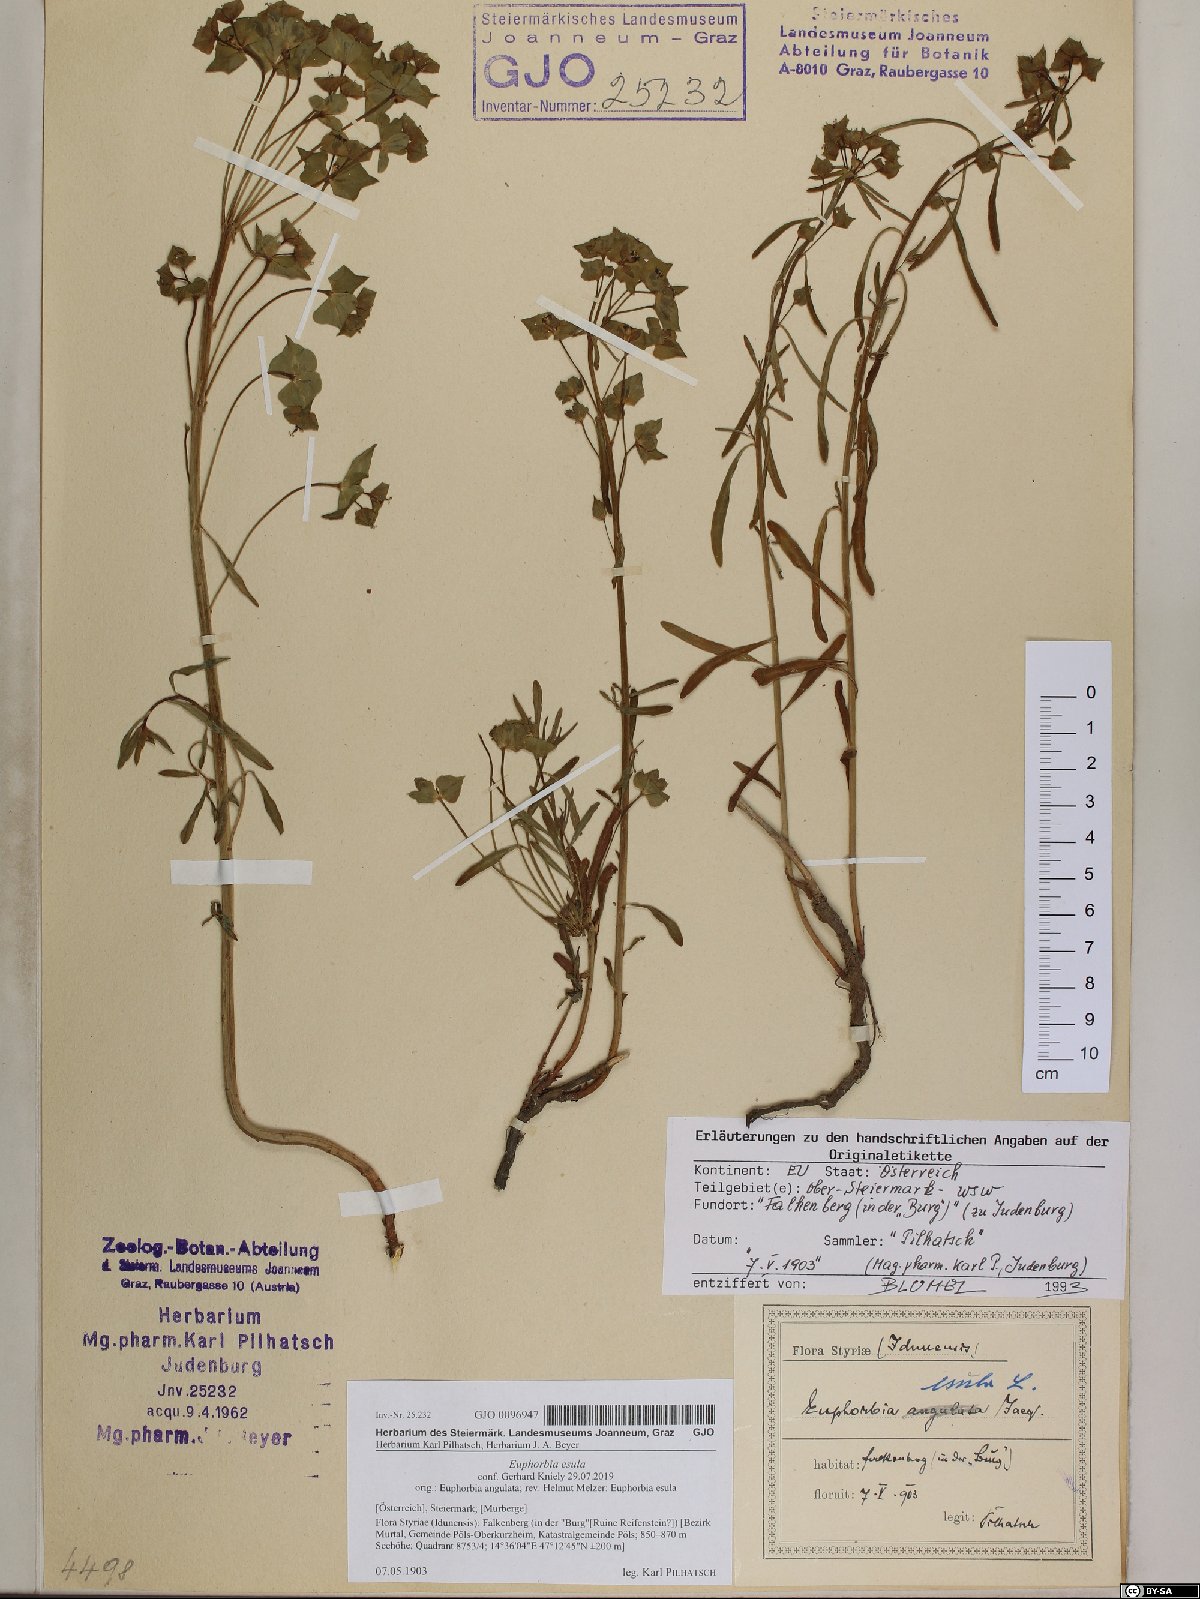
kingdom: Plantae
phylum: Tracheophyta
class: Magnoliopsida
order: Malpighiales
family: Euphorbiaceae
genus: Euphorbia
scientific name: Euphorbia esula
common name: Leafy spurge
